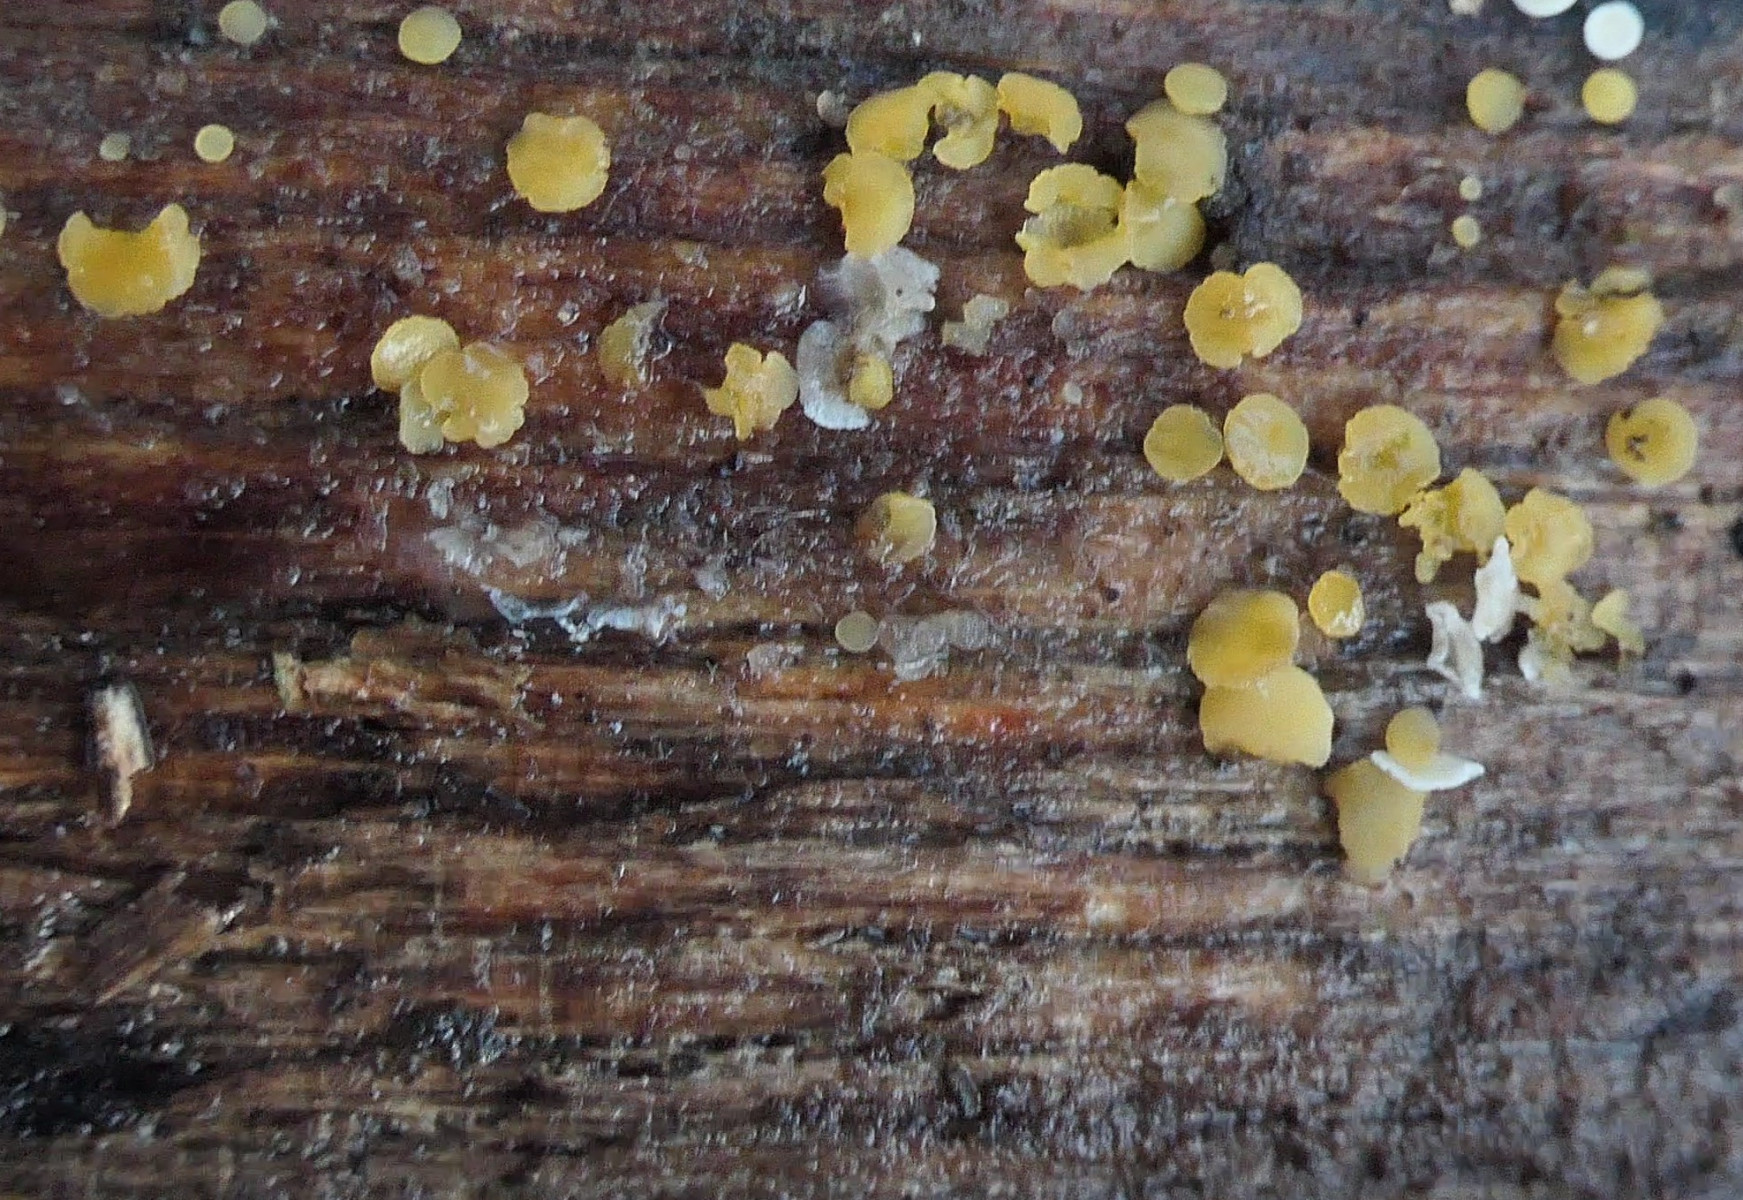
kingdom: Fungi
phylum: Ascomycota
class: Leotiomycetes
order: Helotiales
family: Helotiaceae
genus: Bisporella
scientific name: Bisporella subpallida
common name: lys snitskive
